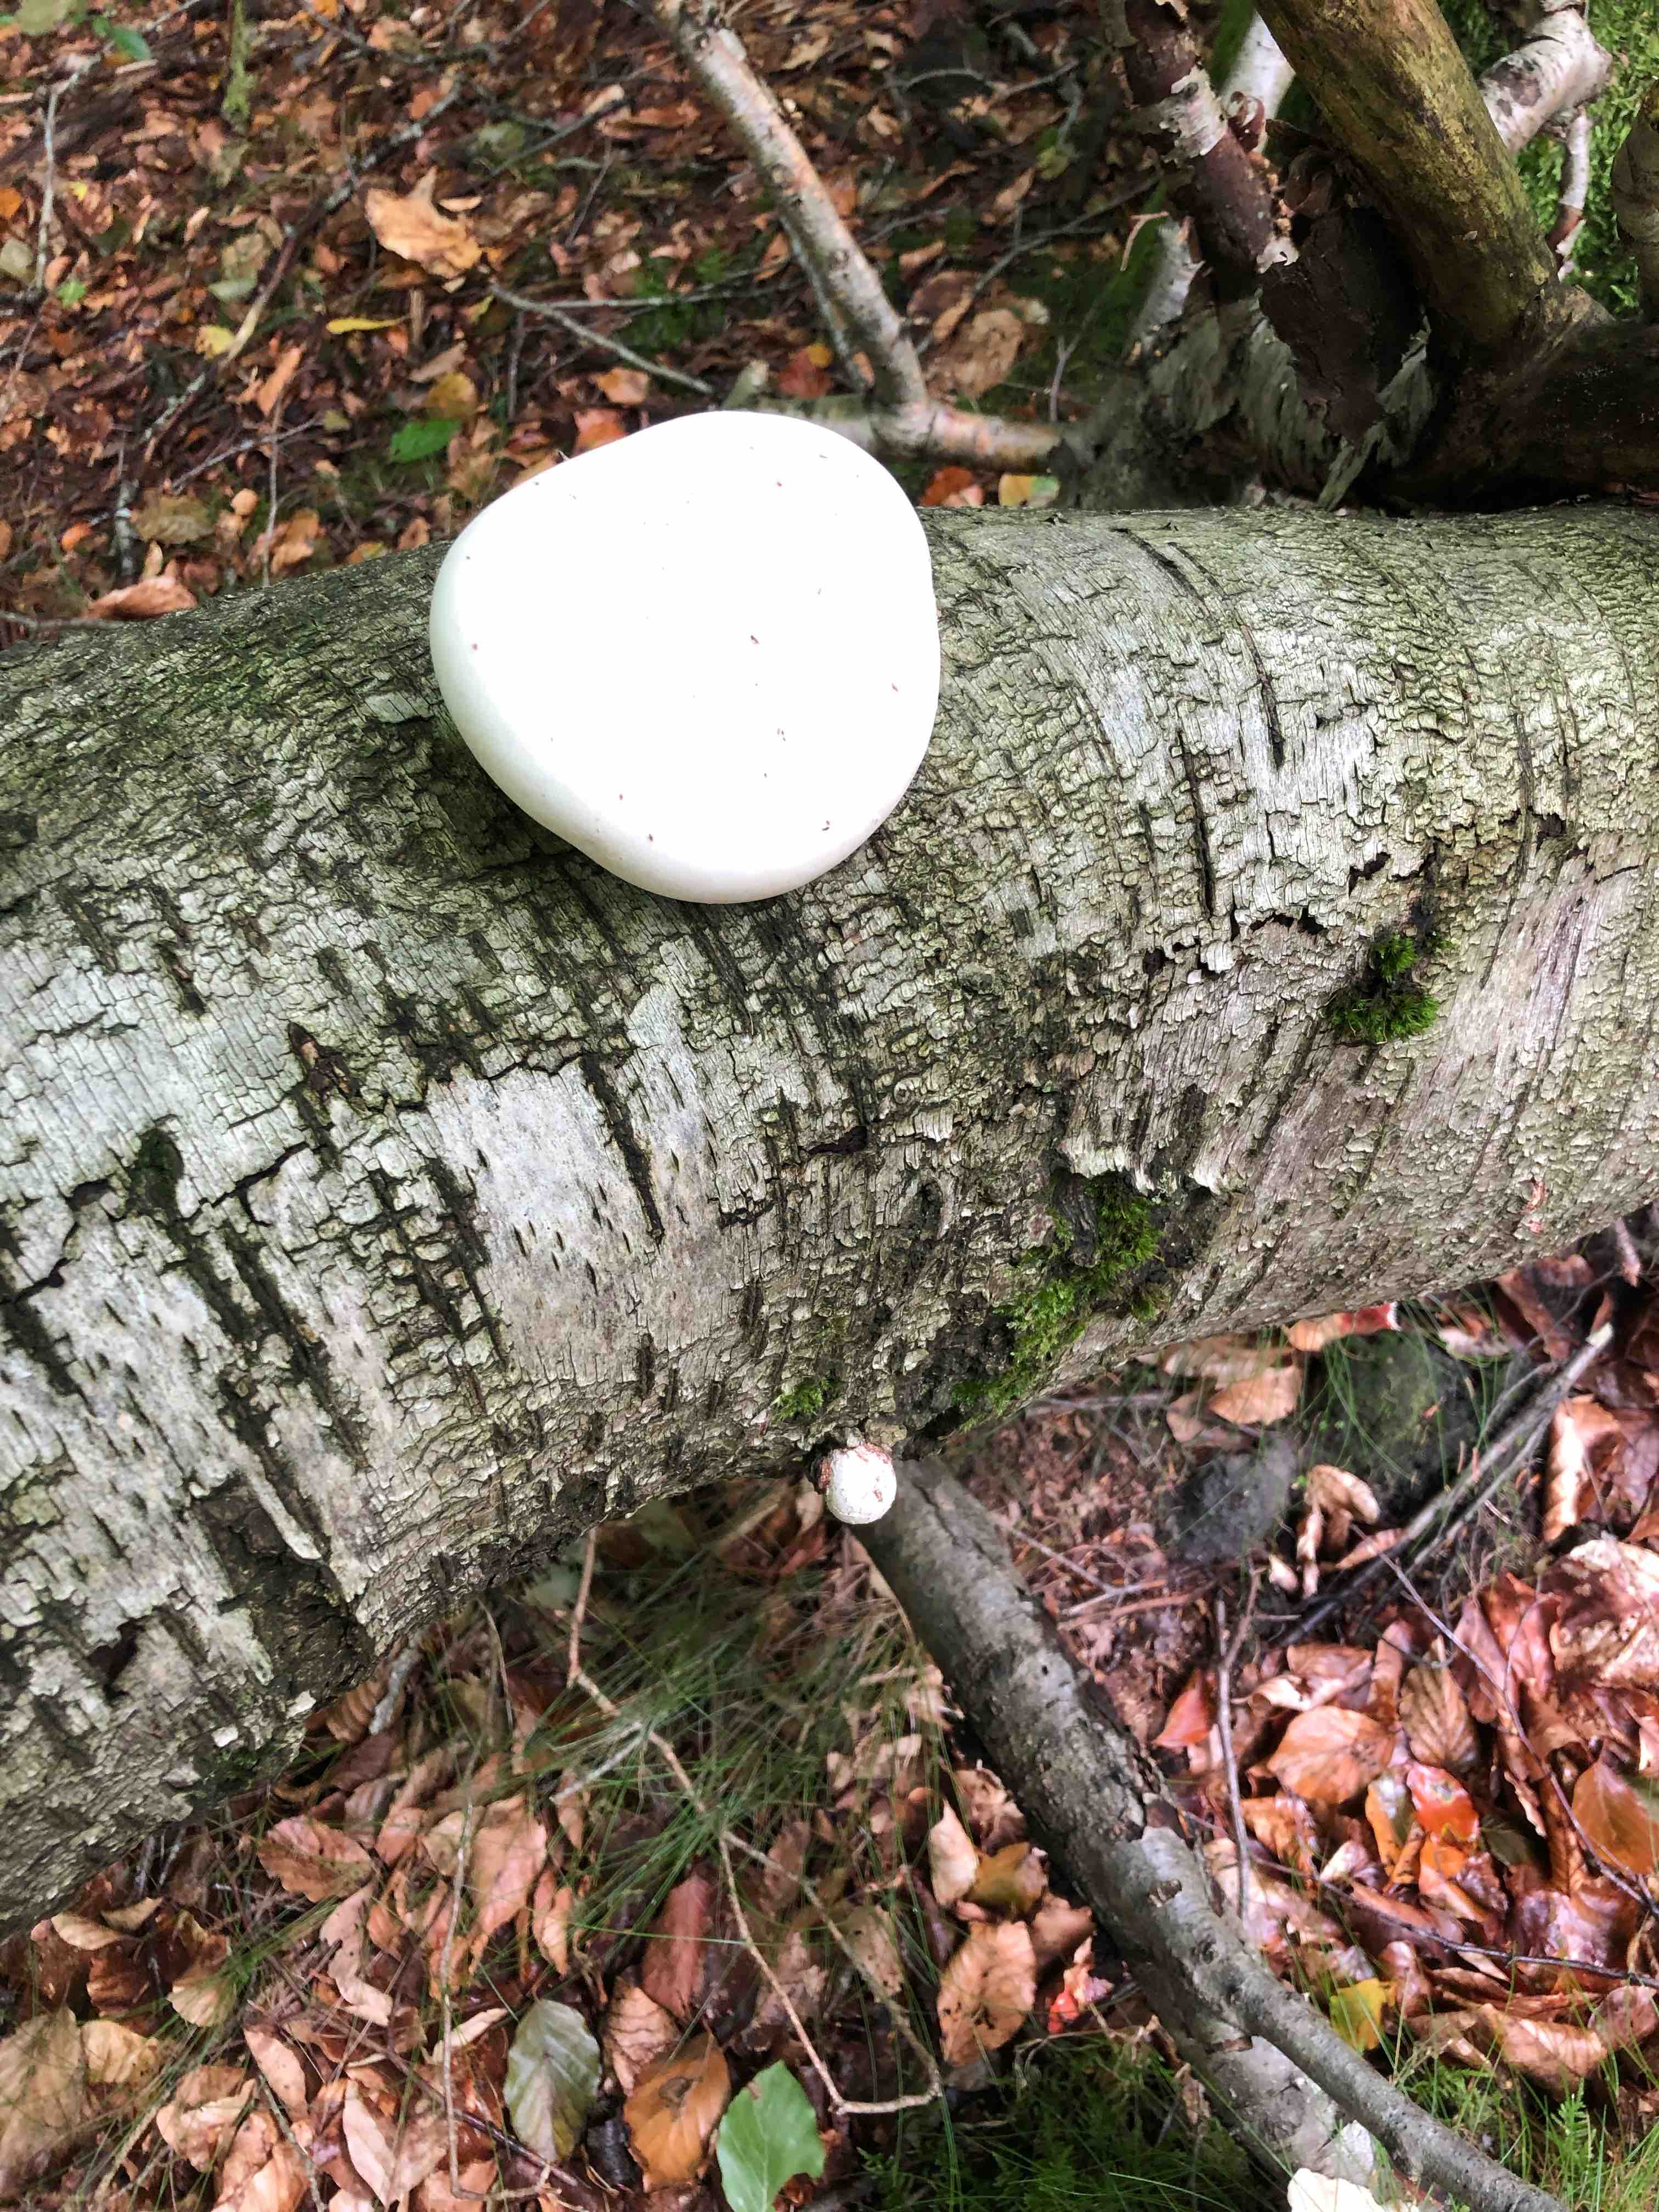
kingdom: Fungi
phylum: Basidiomycota
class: Agaricomycetes
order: Polyporales
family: Fomitopsidaceae
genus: Fomitopsis
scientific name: Fomitopsis betulina
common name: birkeporesvamp
